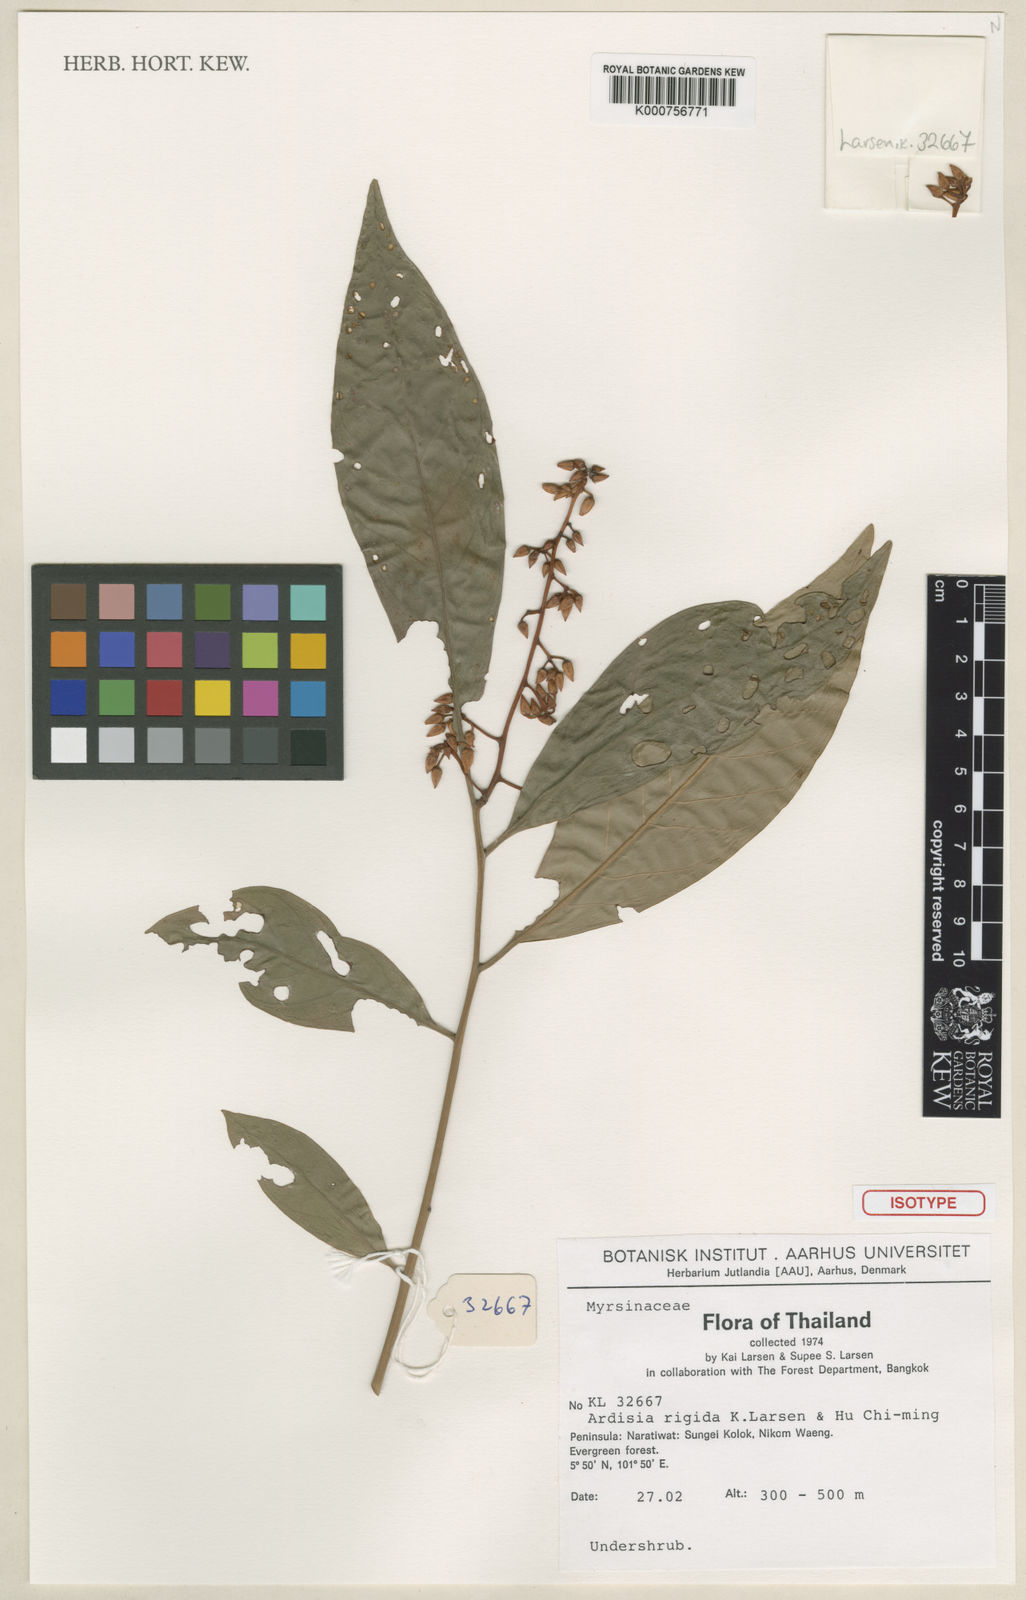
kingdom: Plantae
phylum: Tracheophyta
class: Magnoliopsida
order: Ericales
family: Primulaceae
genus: Ardisia
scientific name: Ardisia rigida
